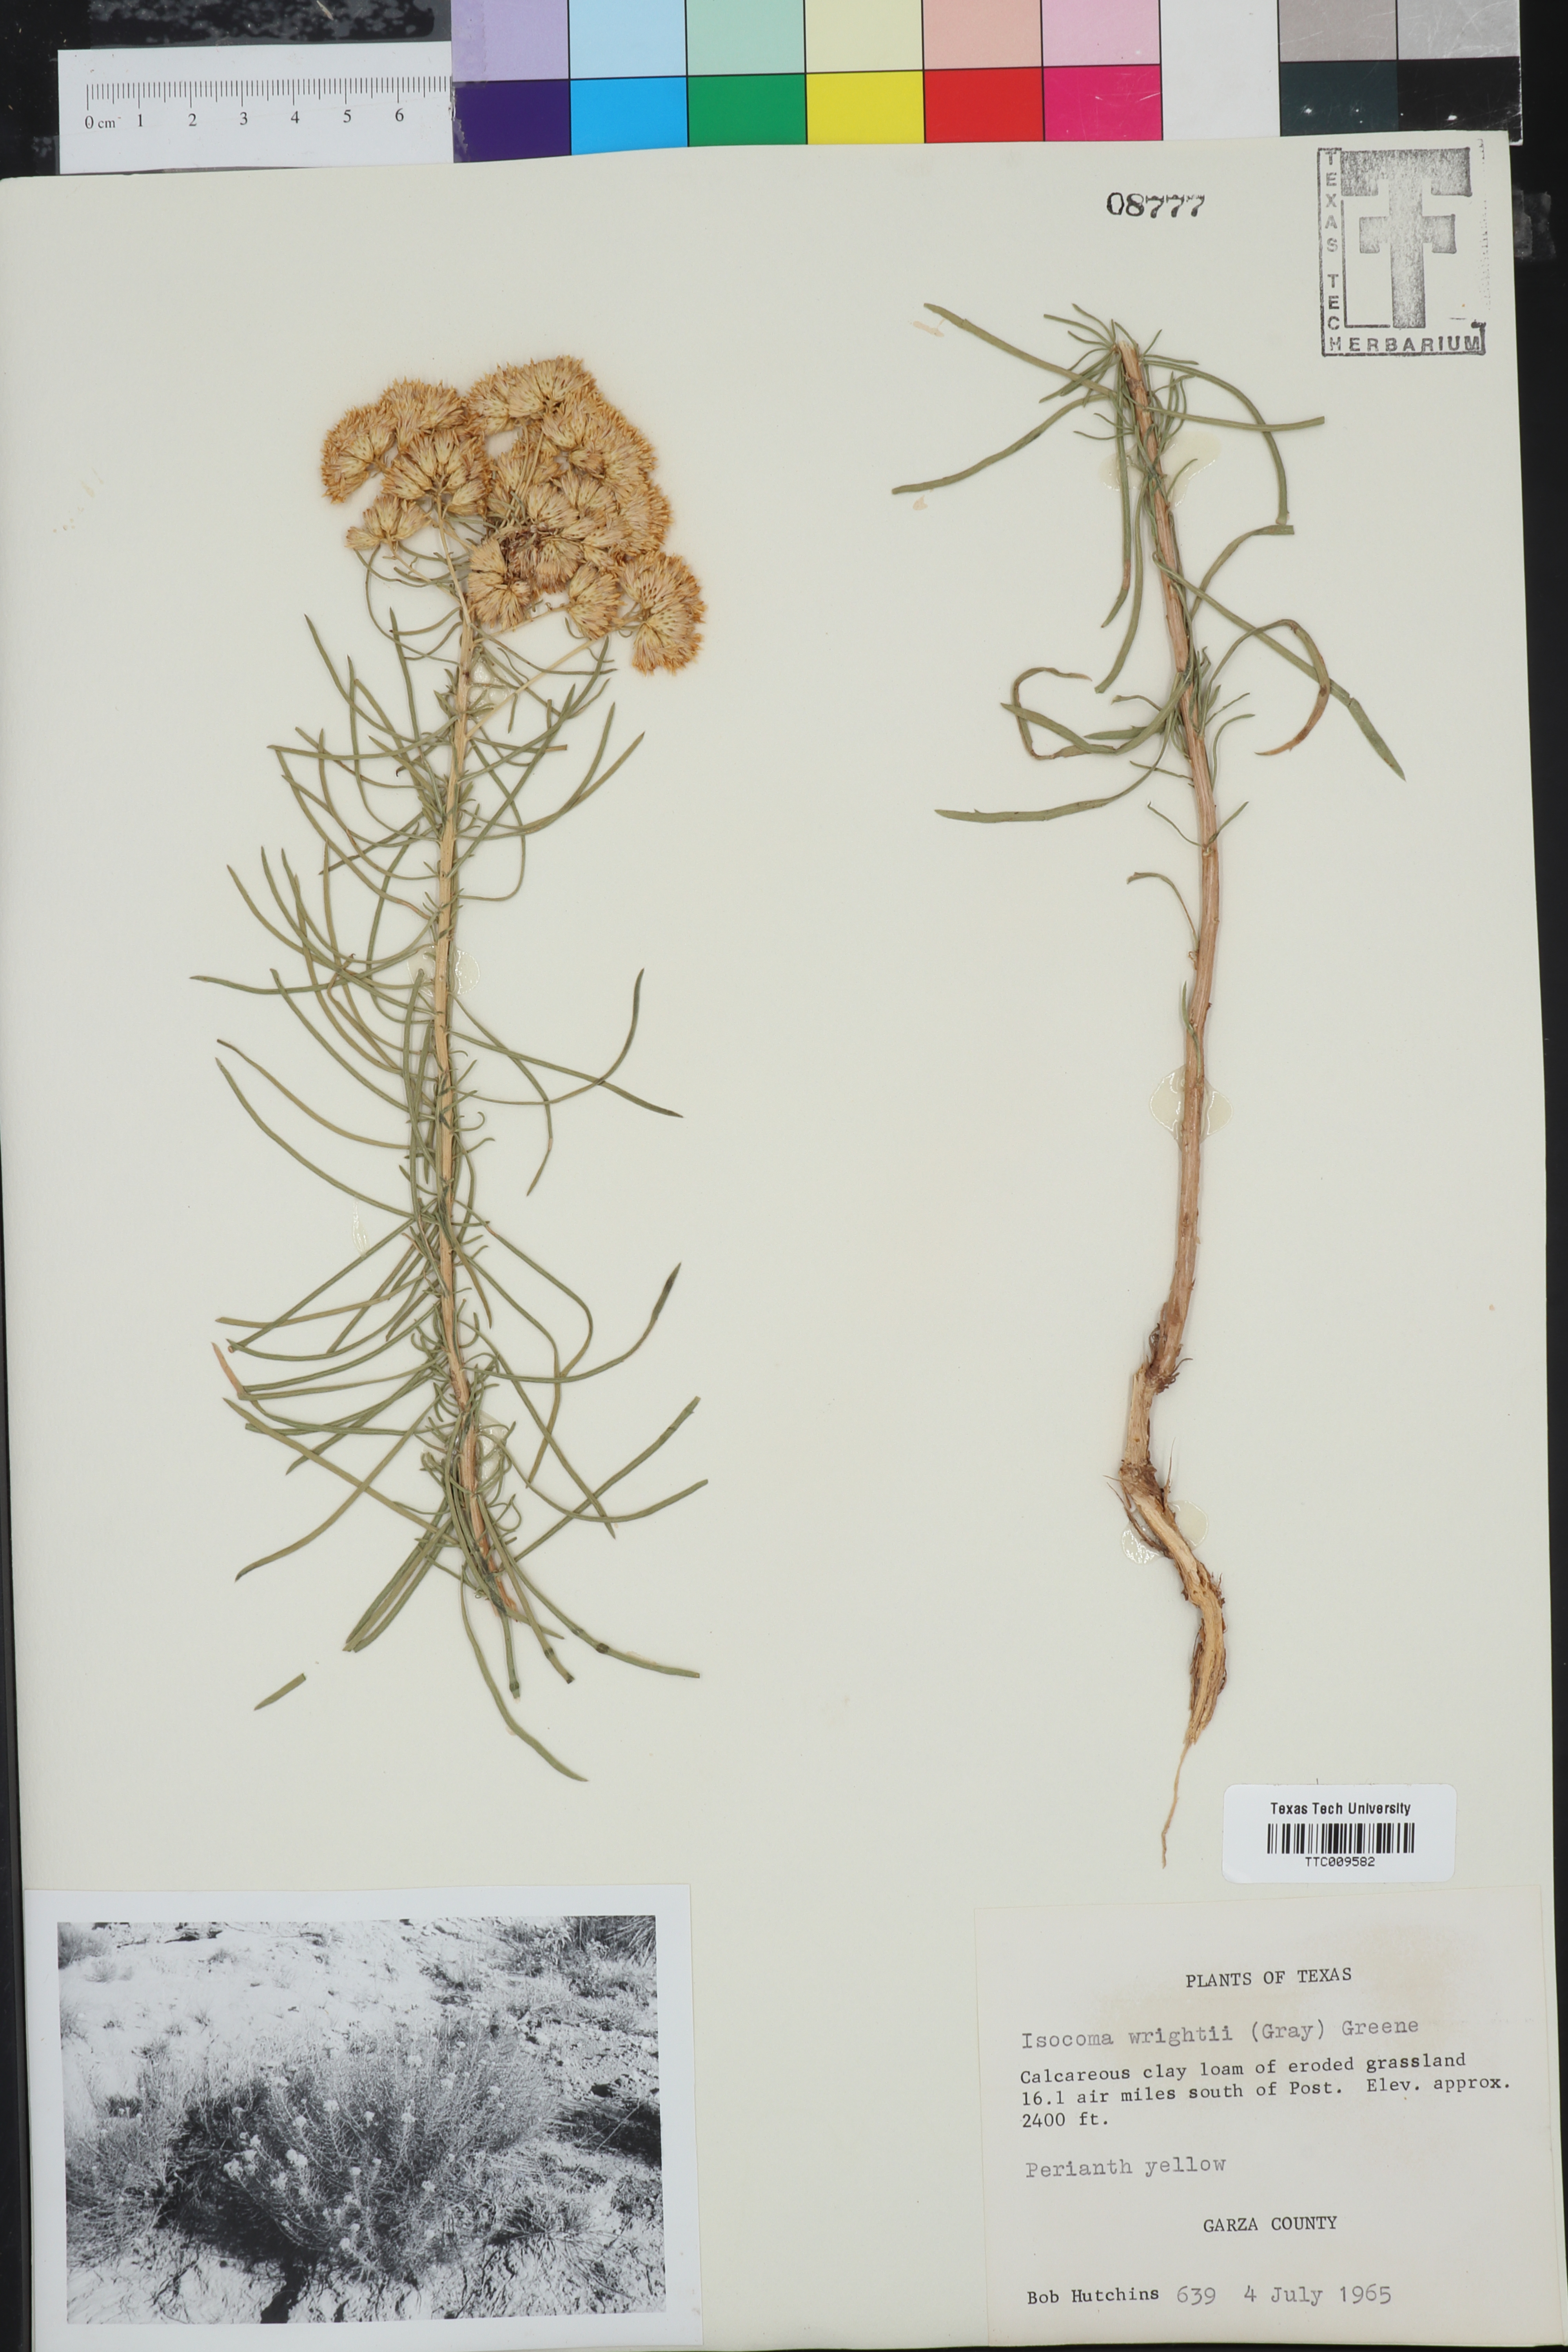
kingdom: Plantae
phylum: Tracheophyta
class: Magnoliopsida
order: Asterales
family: Asteraceae
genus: Isocoma
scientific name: Isocoma pluriflora
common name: Southern jimmyweed
